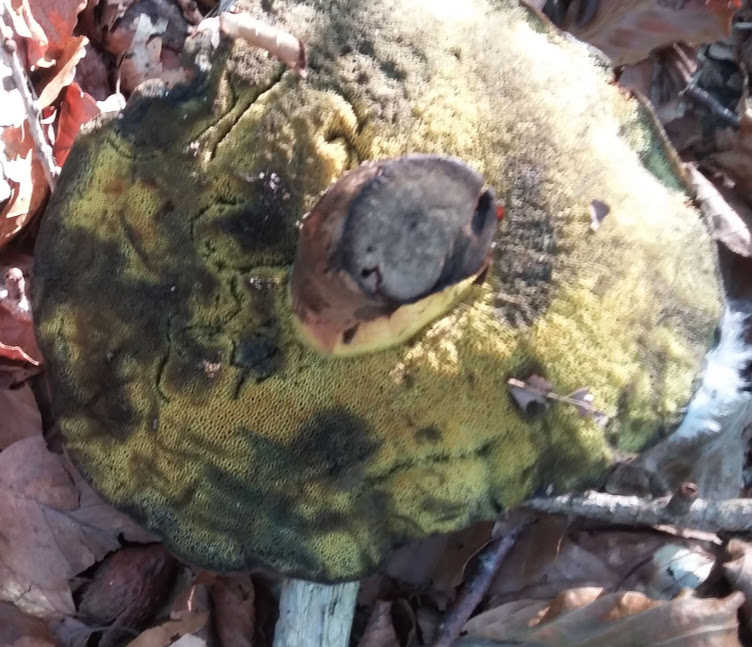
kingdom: Fungi
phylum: Basidiomycota
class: Agaricomycetes
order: Boletales
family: Boletaceae
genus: Cyanoboletus
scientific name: Cyanoboletus pulverulentus
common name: sortblånende rørhat
